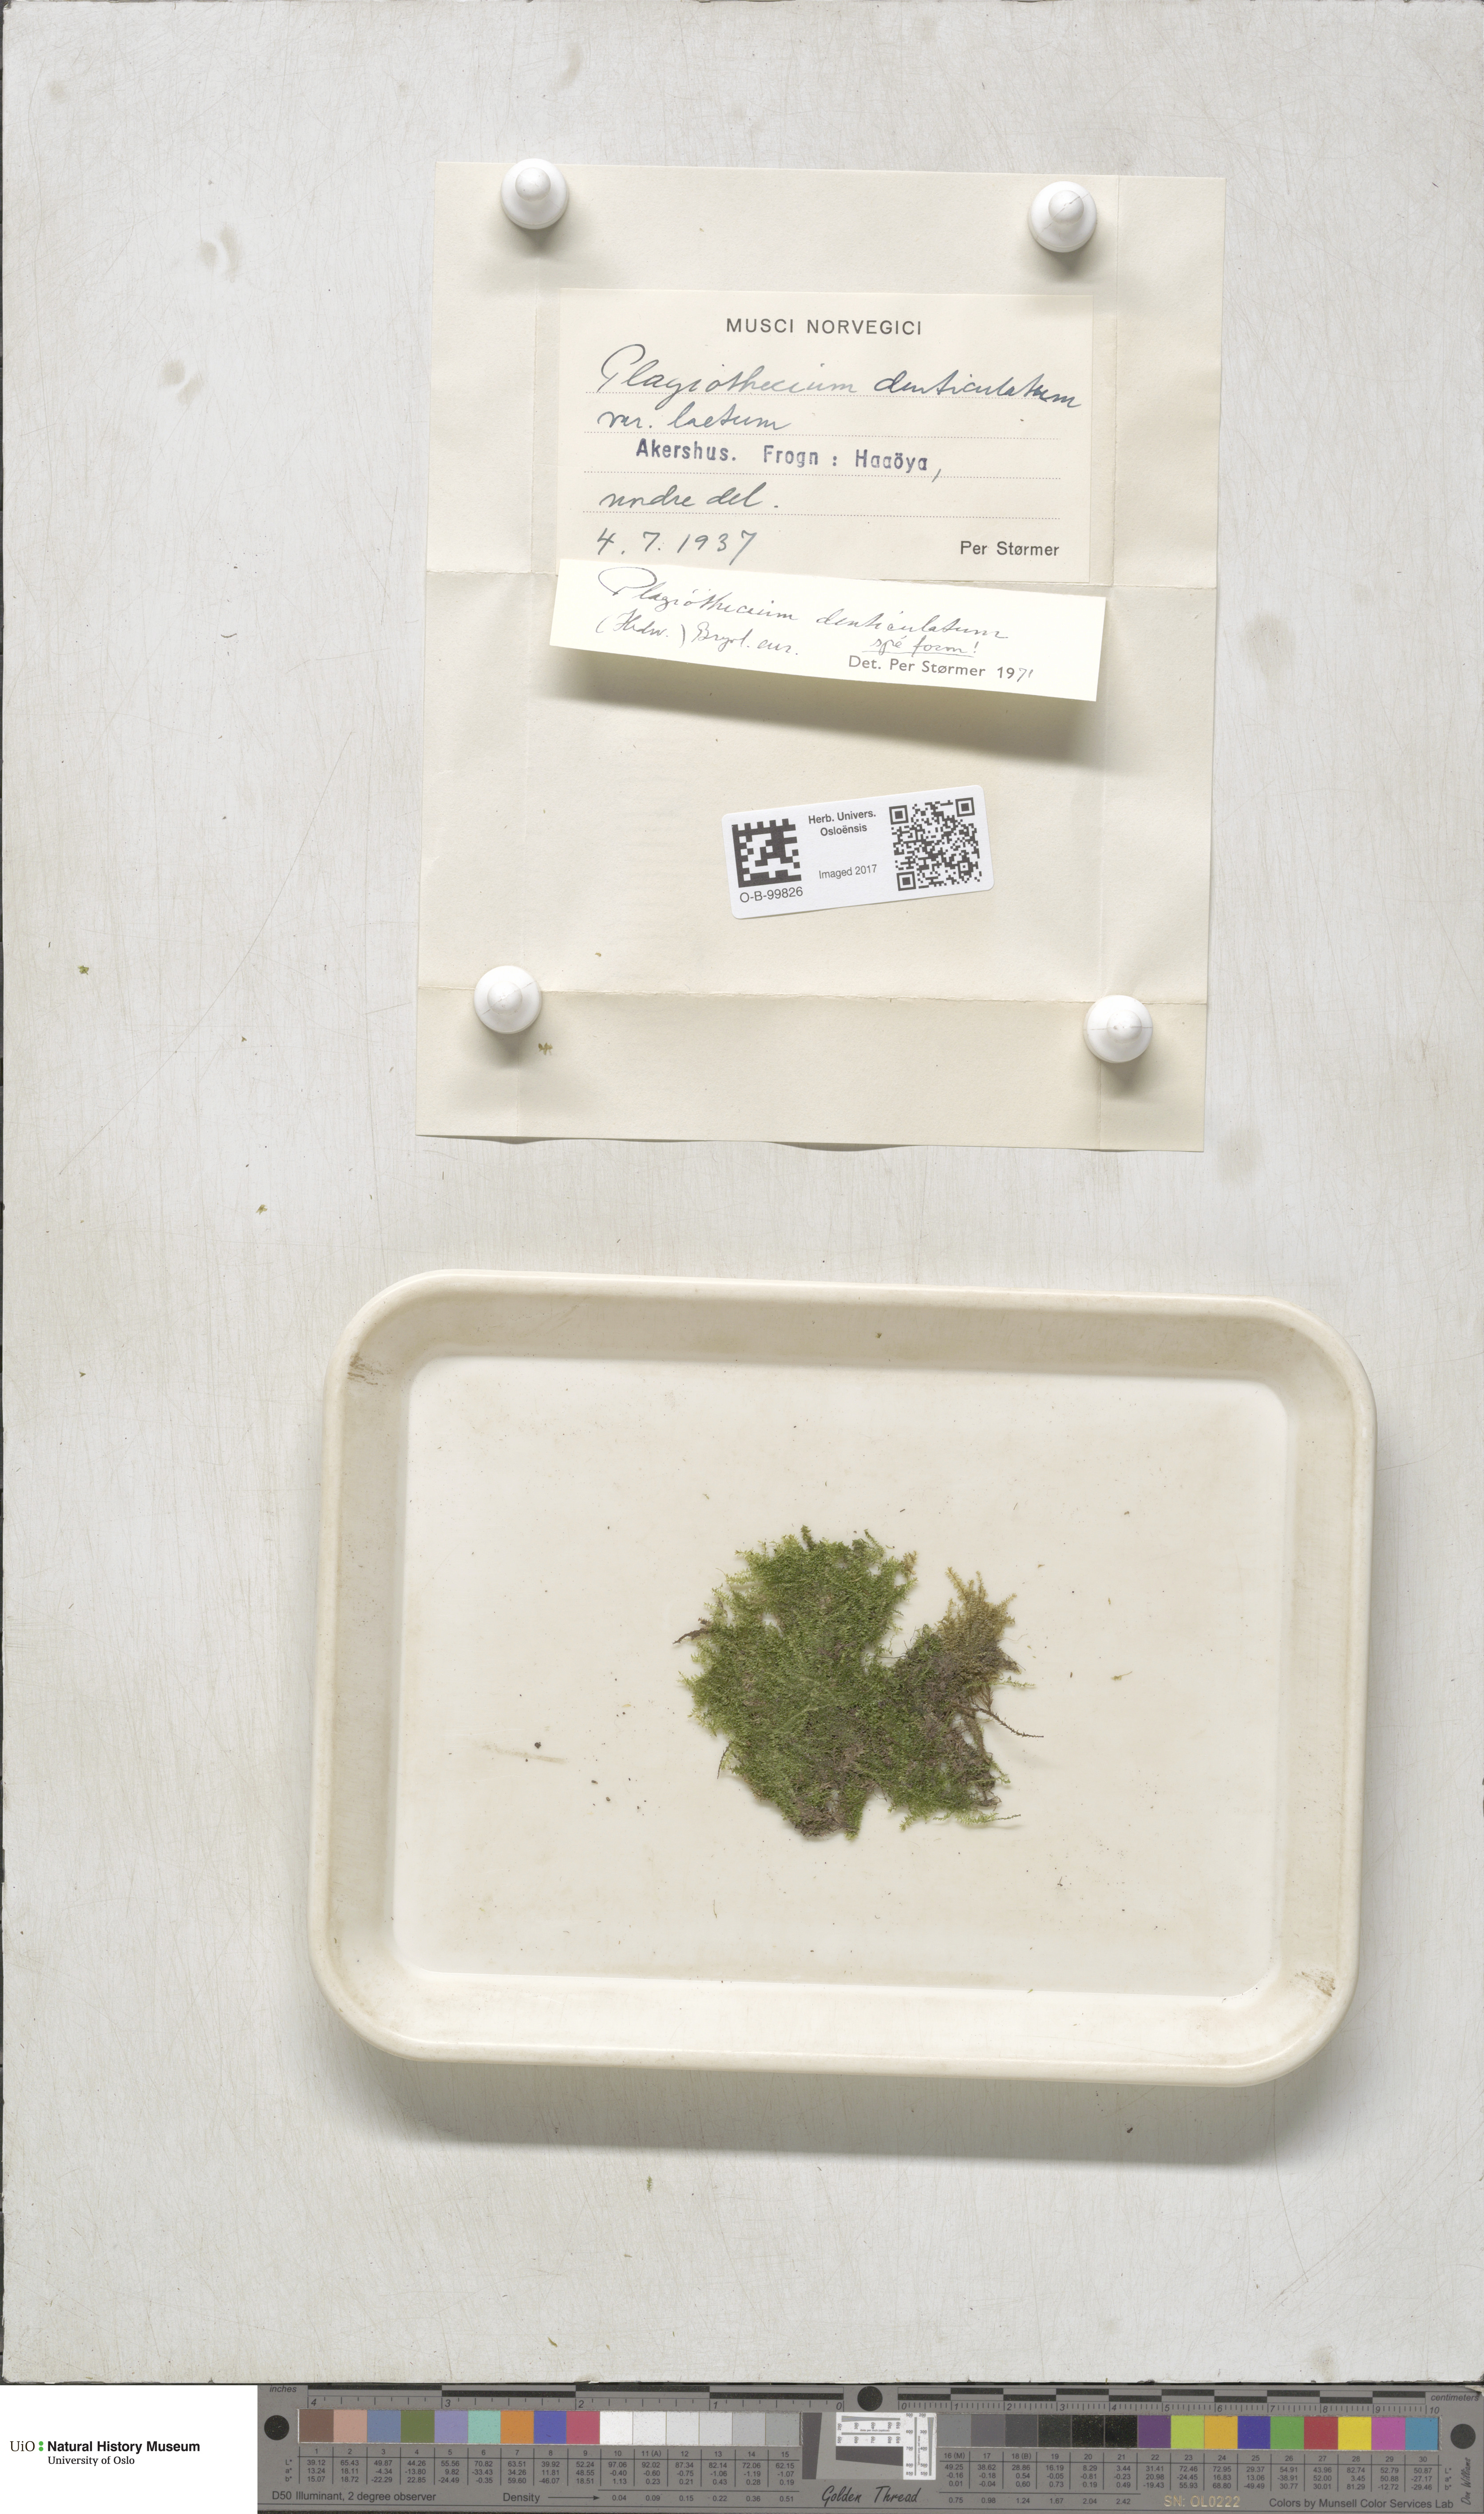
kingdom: Plantae
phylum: Bryophyta
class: Bryopsida
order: Hypnales
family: Plagiotheciaceae
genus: Plagiothecium
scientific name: Plagiothecium denticulatum
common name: Dented silk moss
